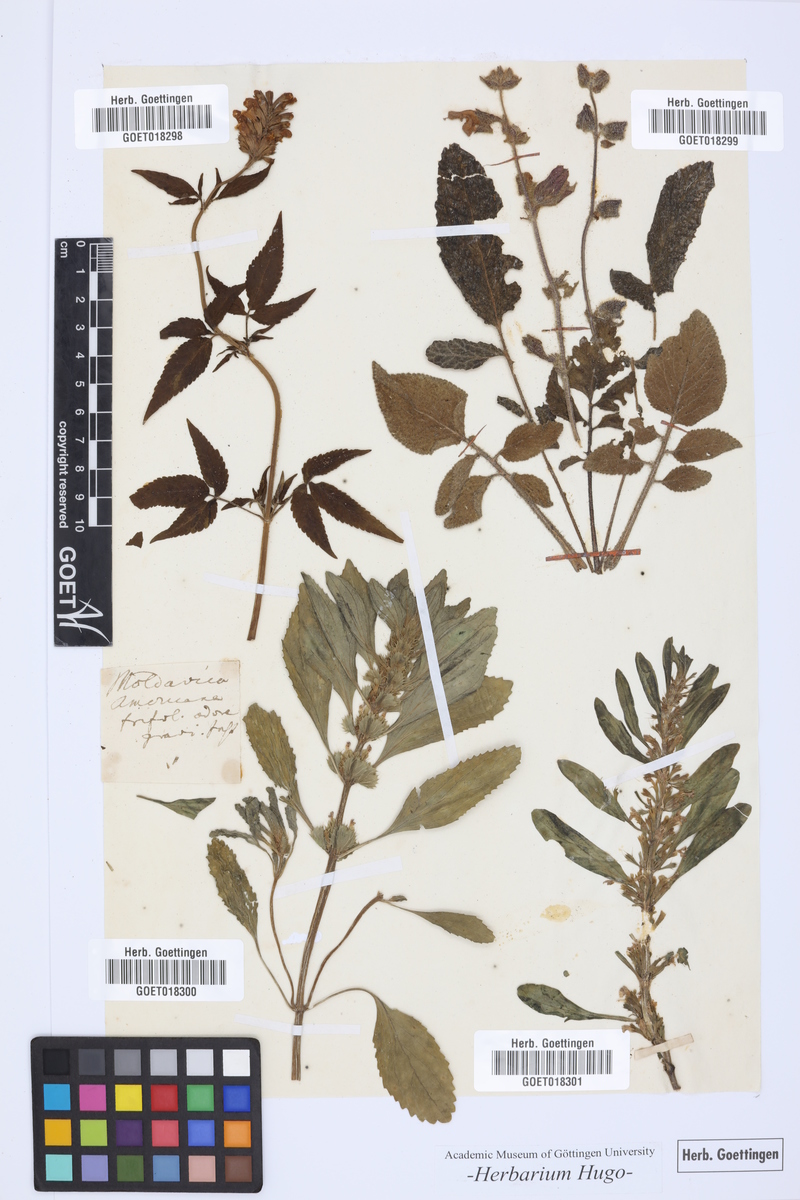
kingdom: Plantae
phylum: Tracheophyta
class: Magnoliopsida
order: Lamiales
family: Lamiaceae
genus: Cedronella
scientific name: Cedronella canariensis
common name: Canary islands balm
